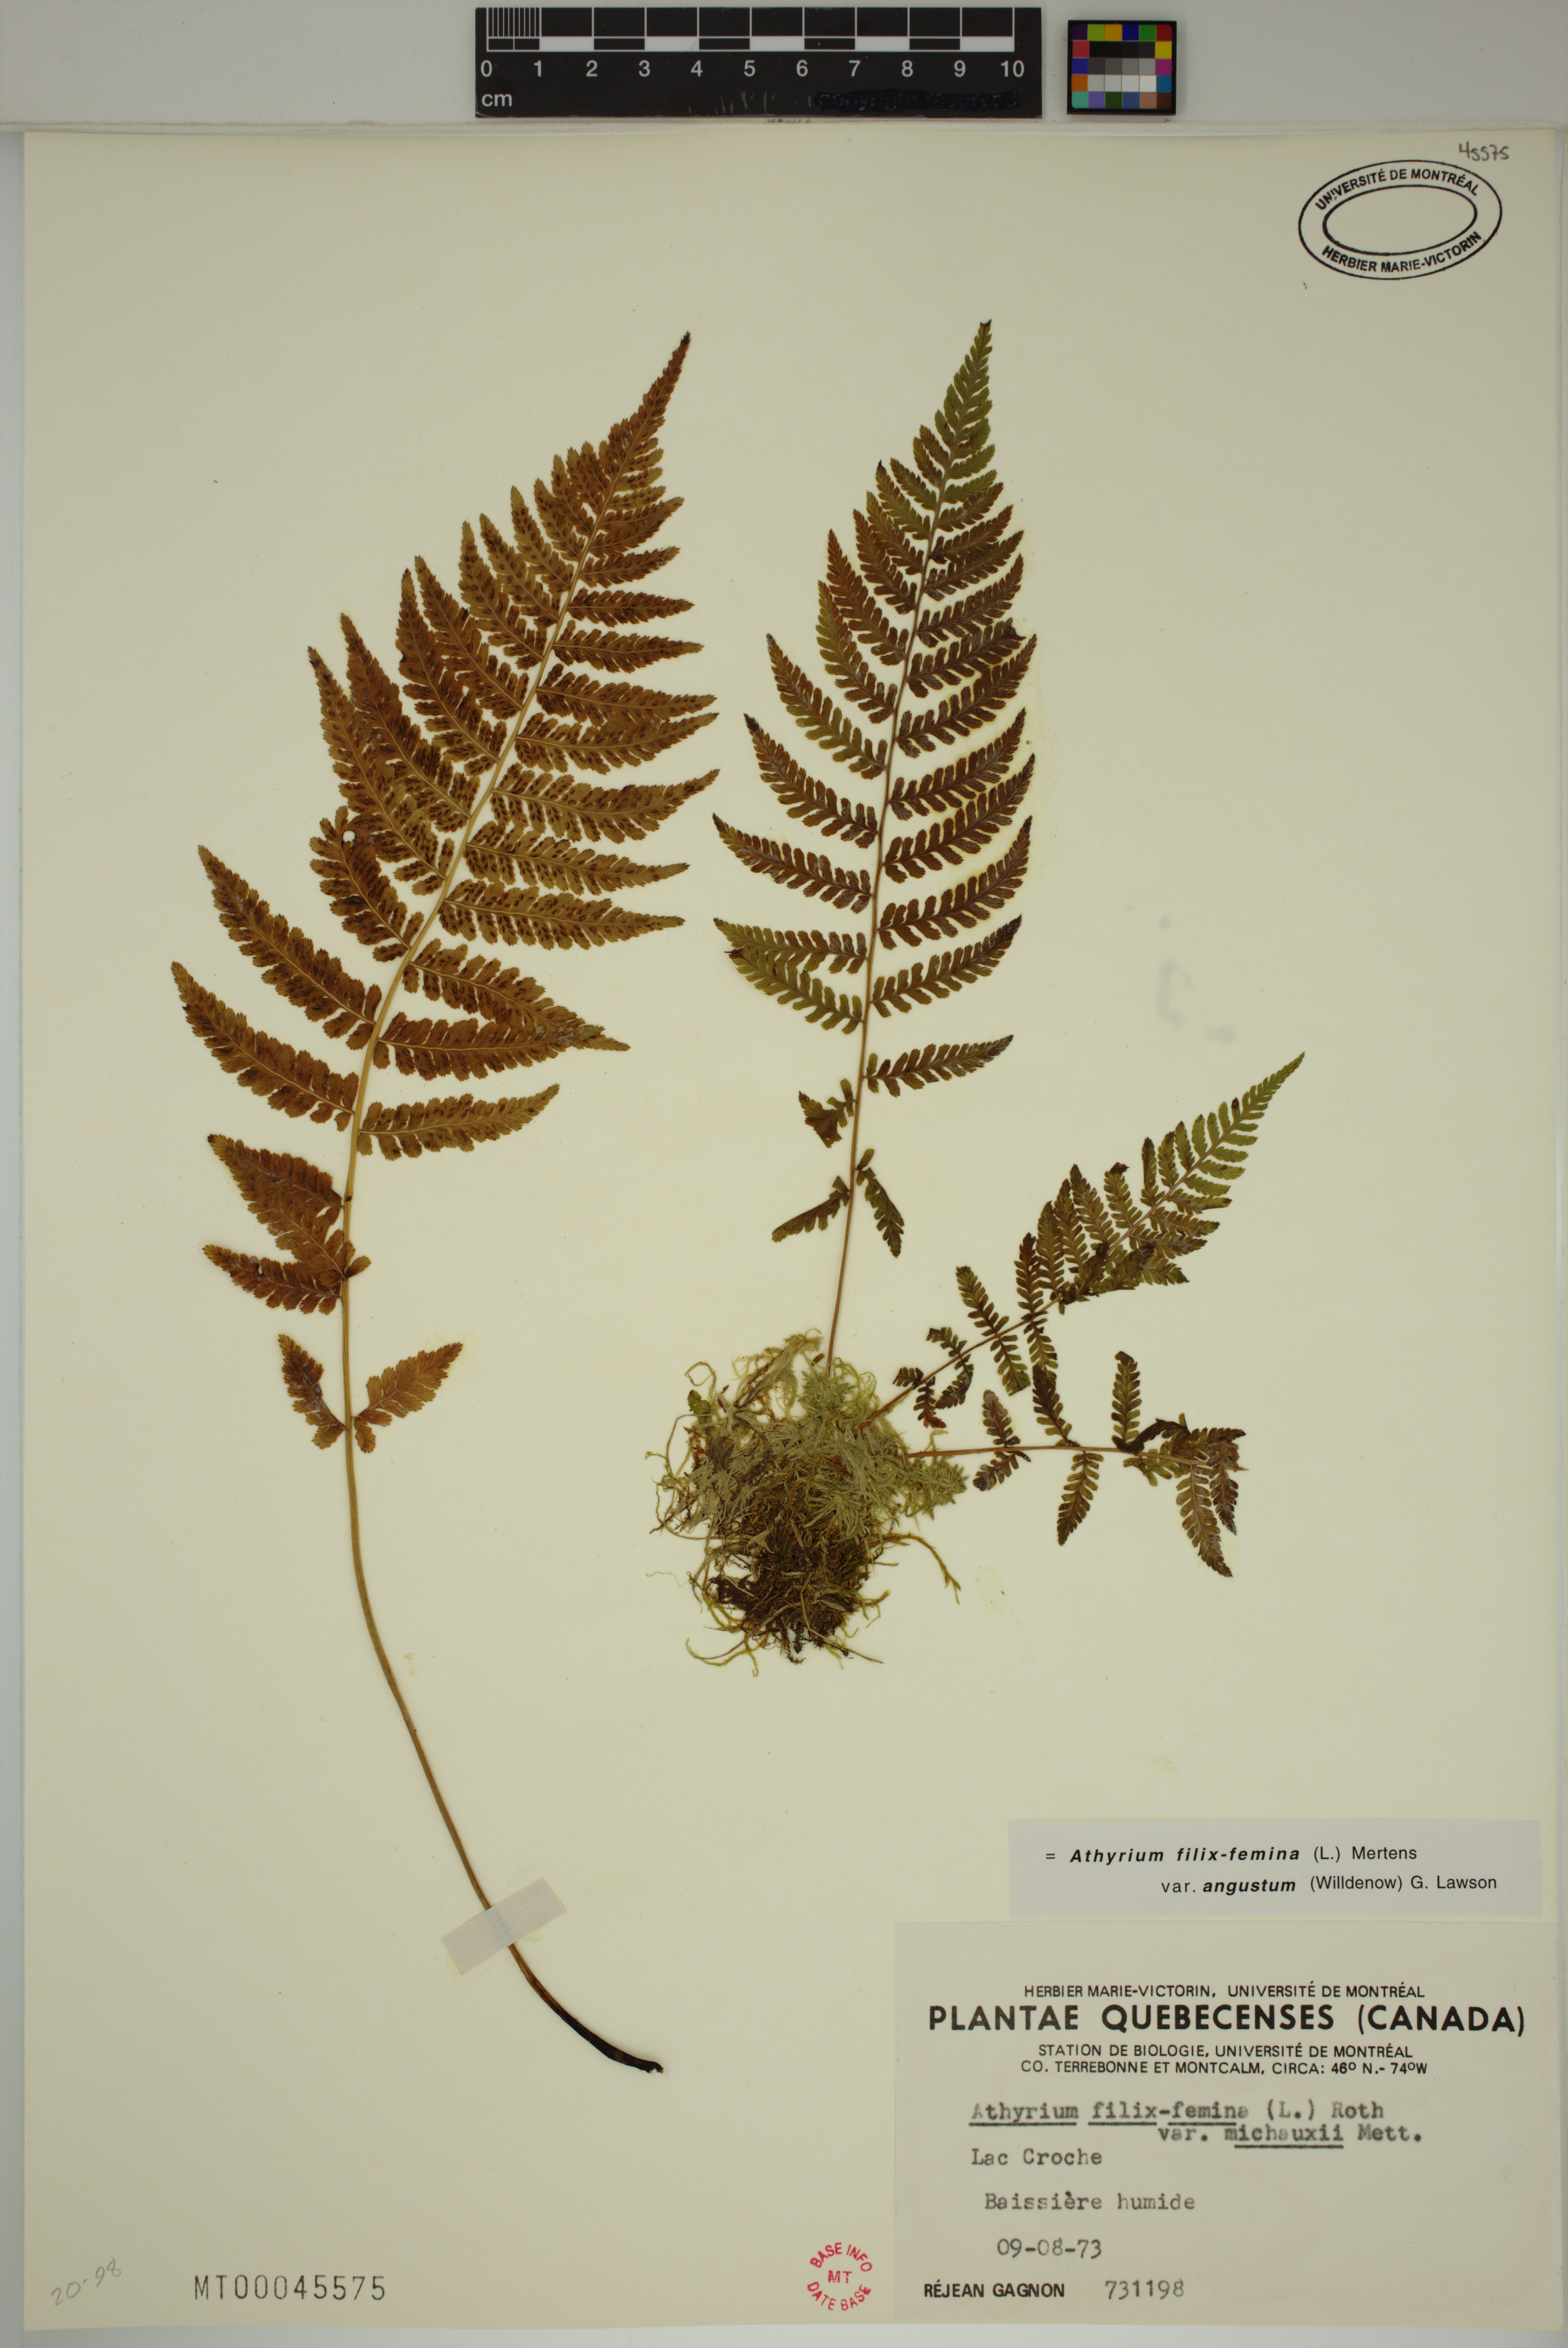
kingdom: Plantae
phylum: Tracheophyta
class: Polypodiopsida
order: Polypodiales
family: Athyriaceae
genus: Athyrium
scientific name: Athyrium angustum
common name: Northern lady fern
